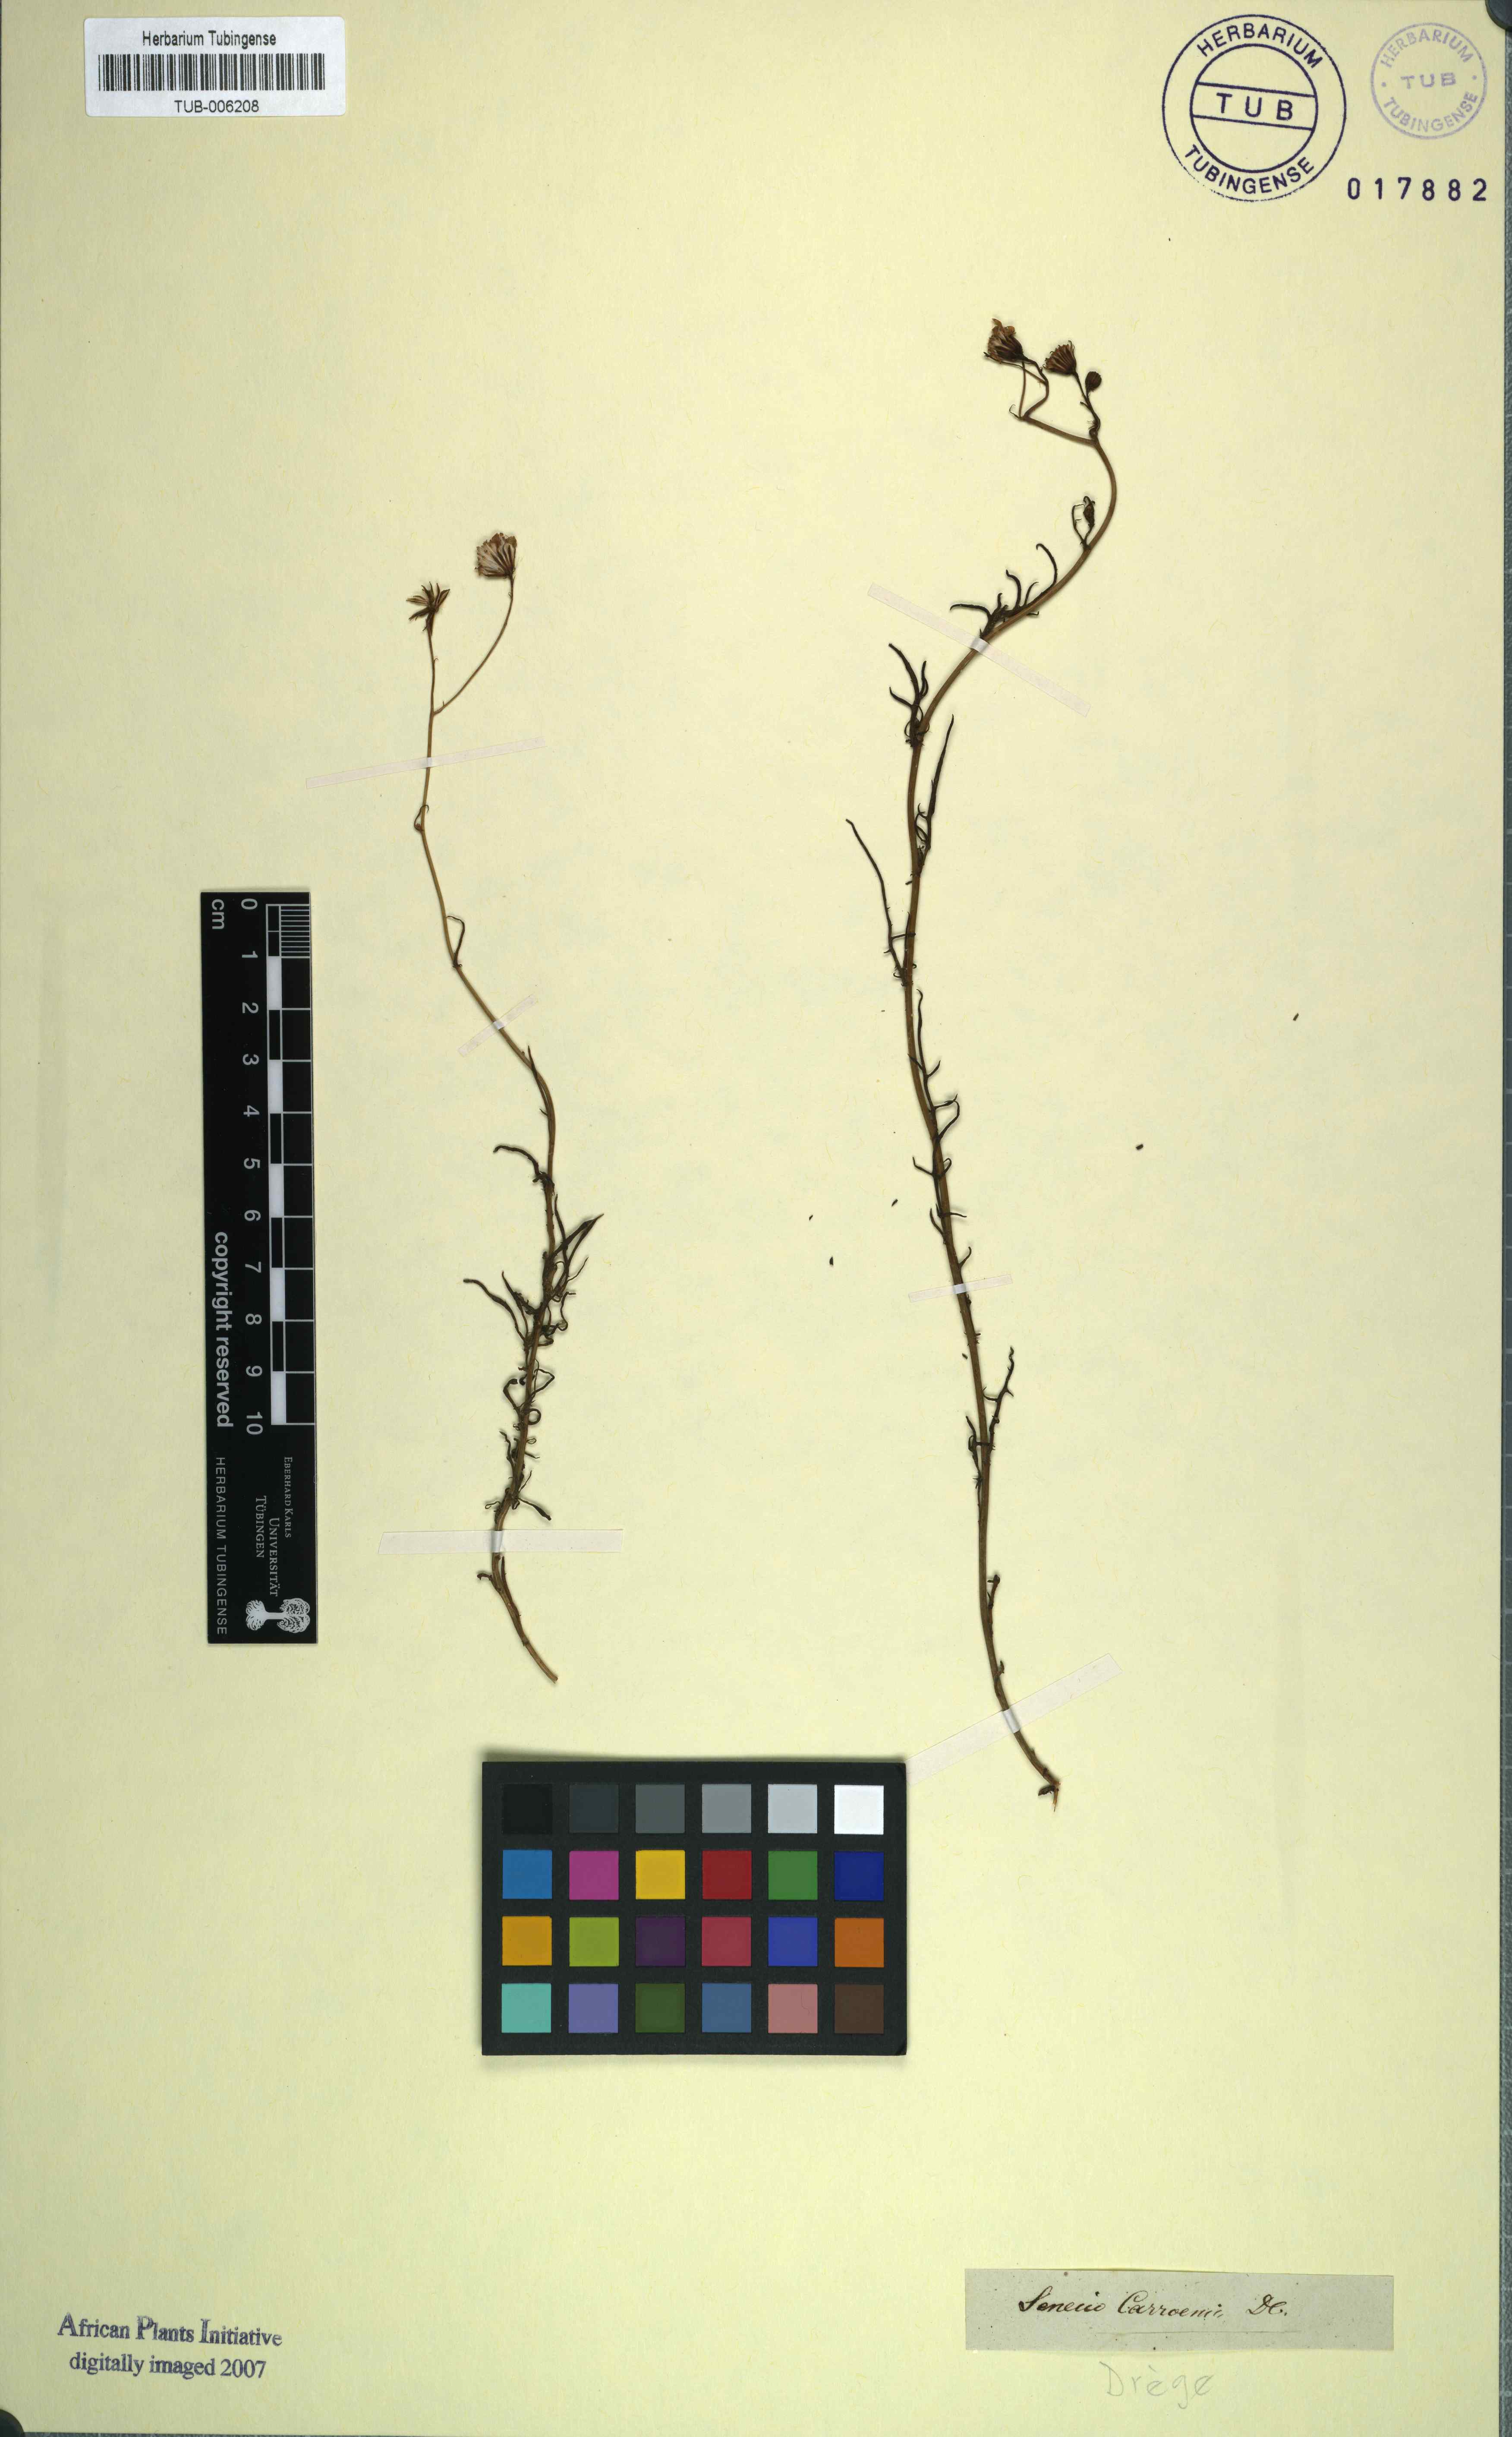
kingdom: Plantae
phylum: Tracheophyta
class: Magnoliopsida
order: Asterales
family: Asteraceae
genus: Senecio
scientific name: Senecio carroensis
